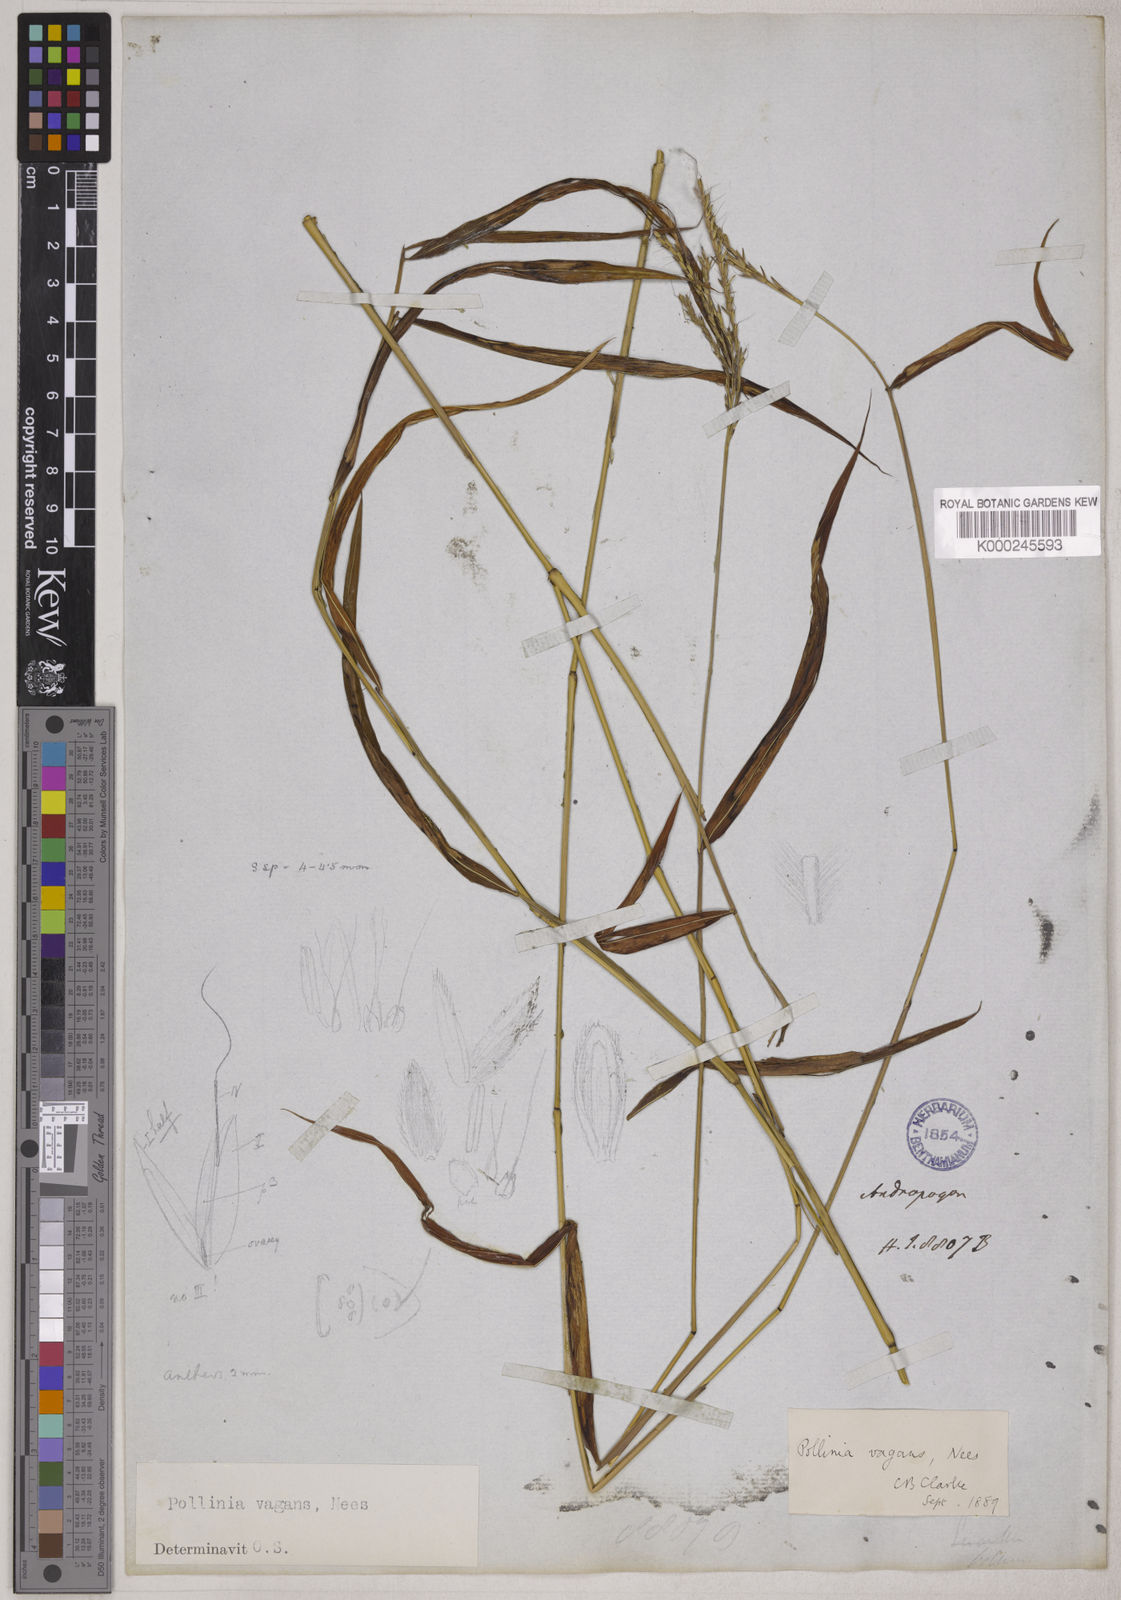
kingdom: Plantae
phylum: Tracheophyta
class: Liliopsida
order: Poales
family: Poaceae
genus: Microstegium
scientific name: Microstegium fasciculatum
